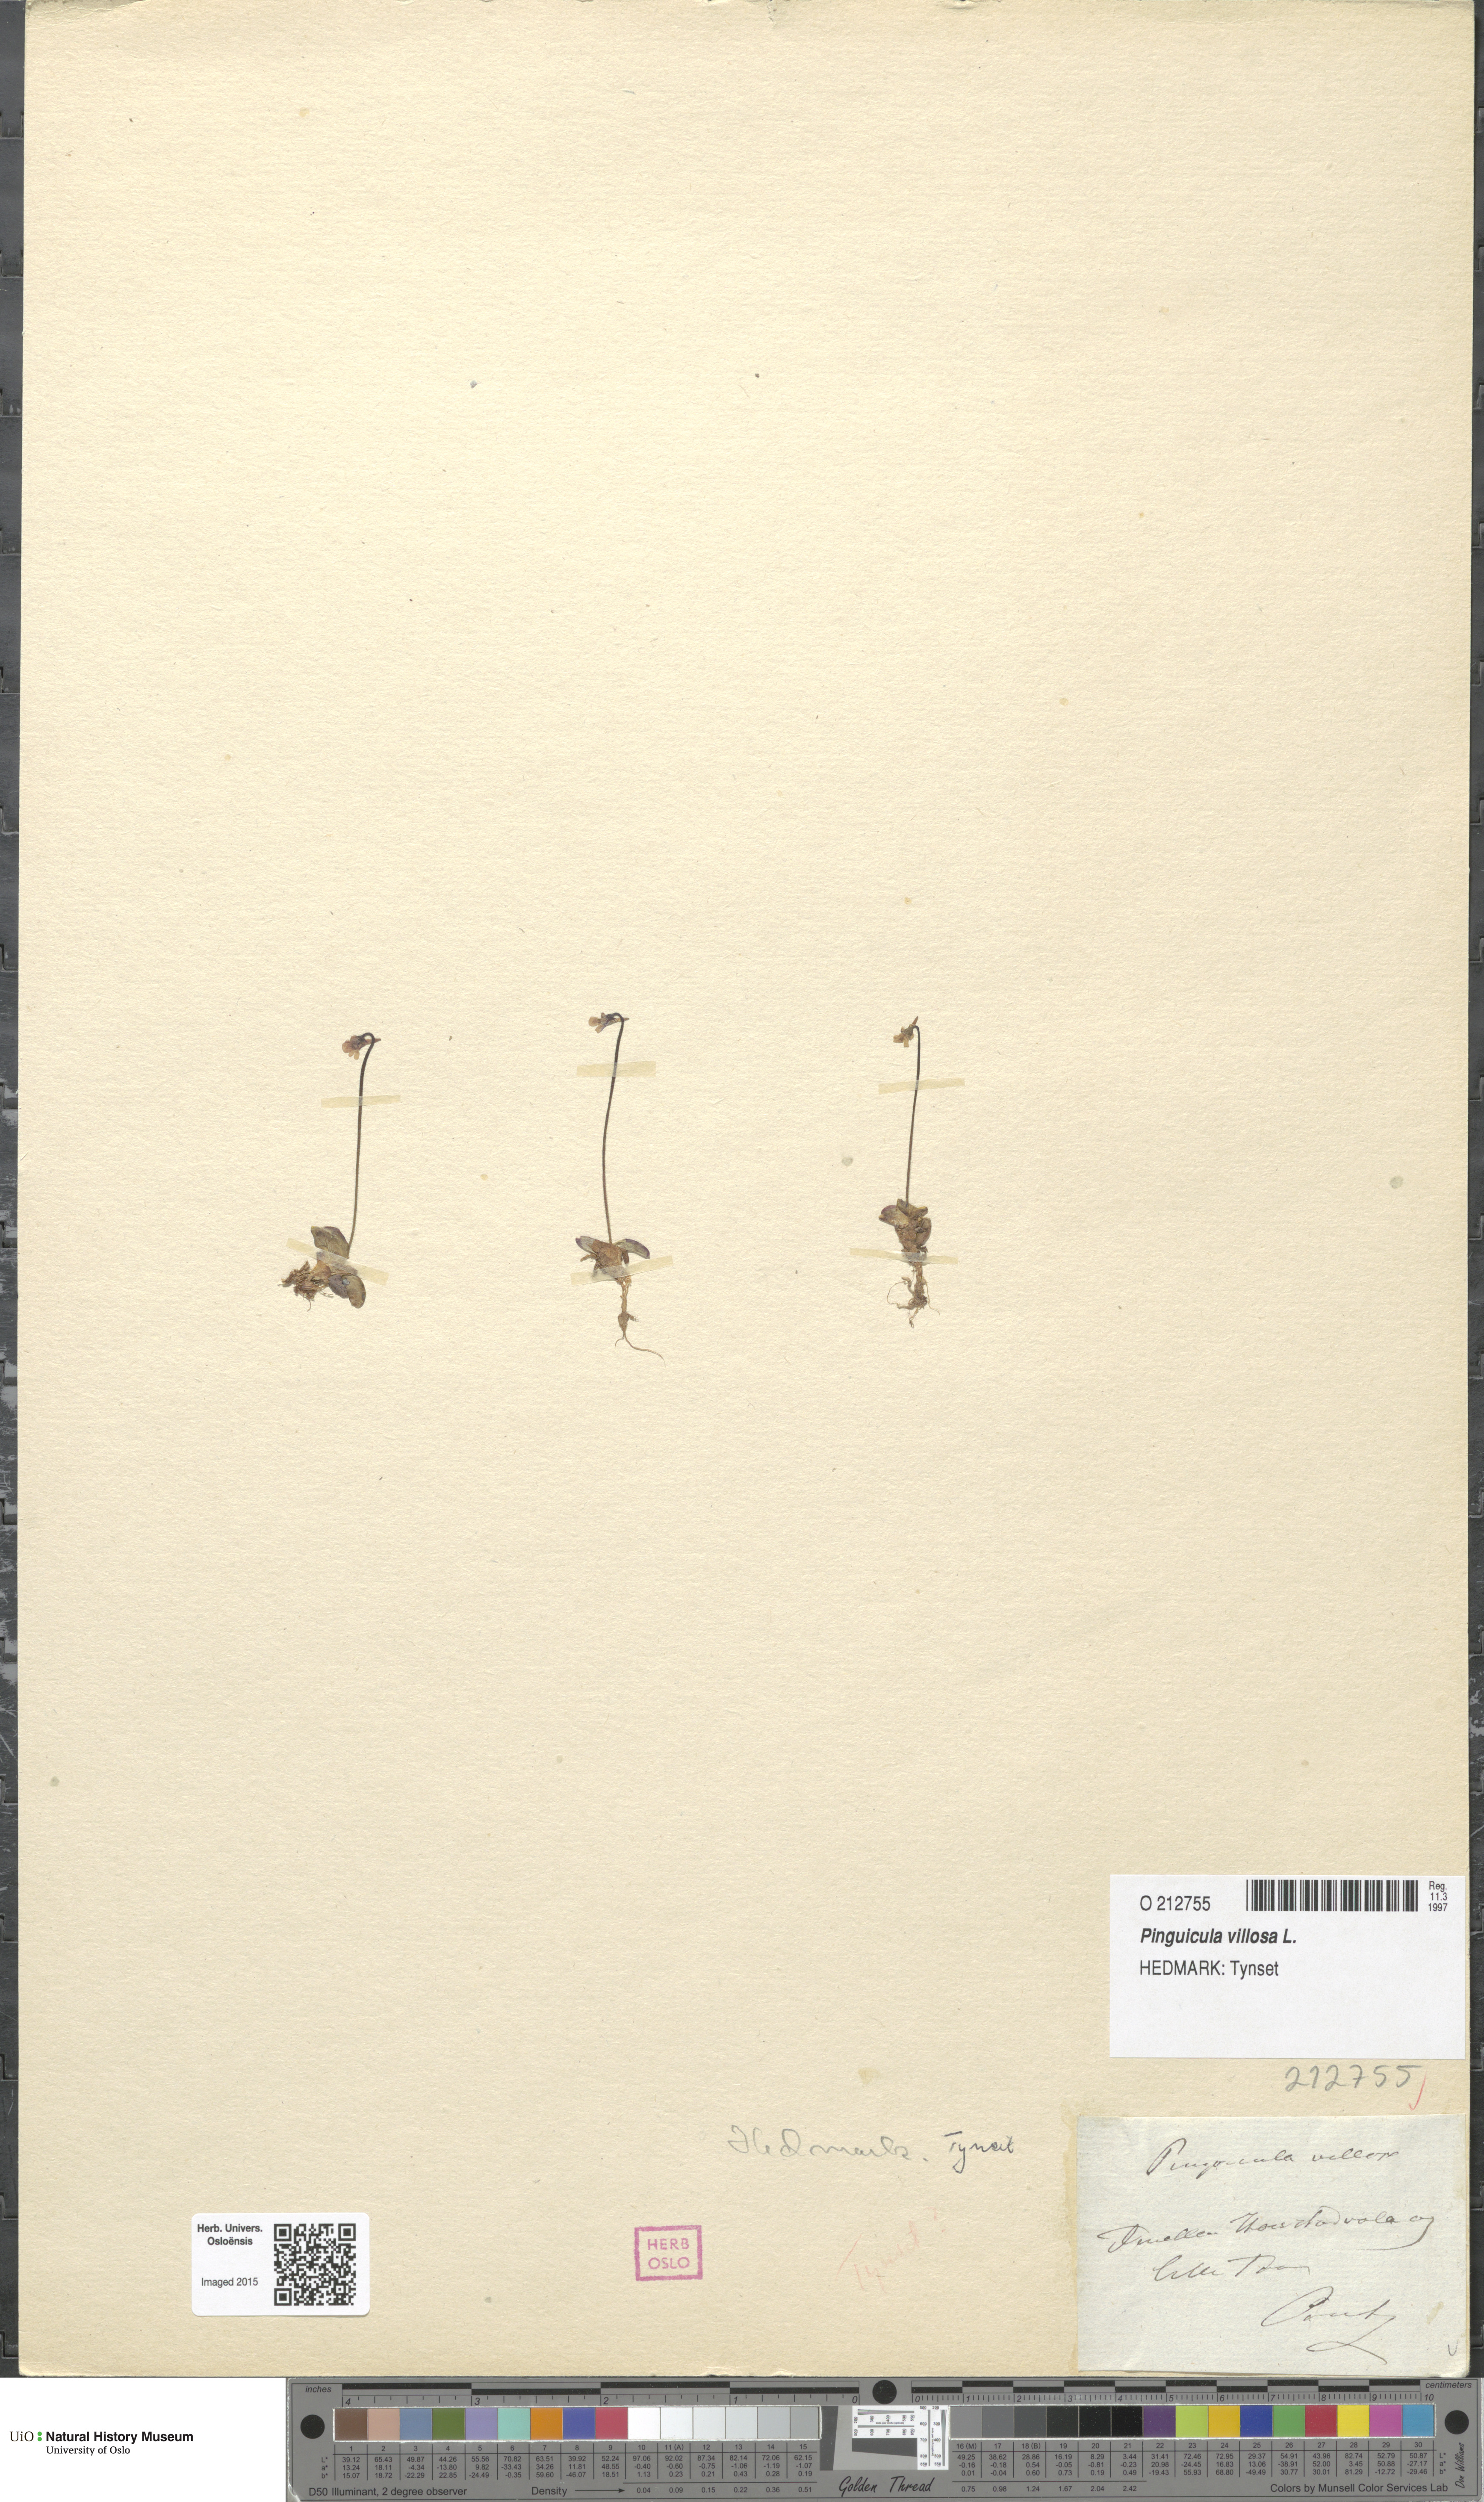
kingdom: Plantae
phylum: Tracheophyta
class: Magnoliopsida
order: Lamiales
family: Lentibulariaceae
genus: Pinguicula
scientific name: Pinguicula villosa
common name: Hairy butterwort
